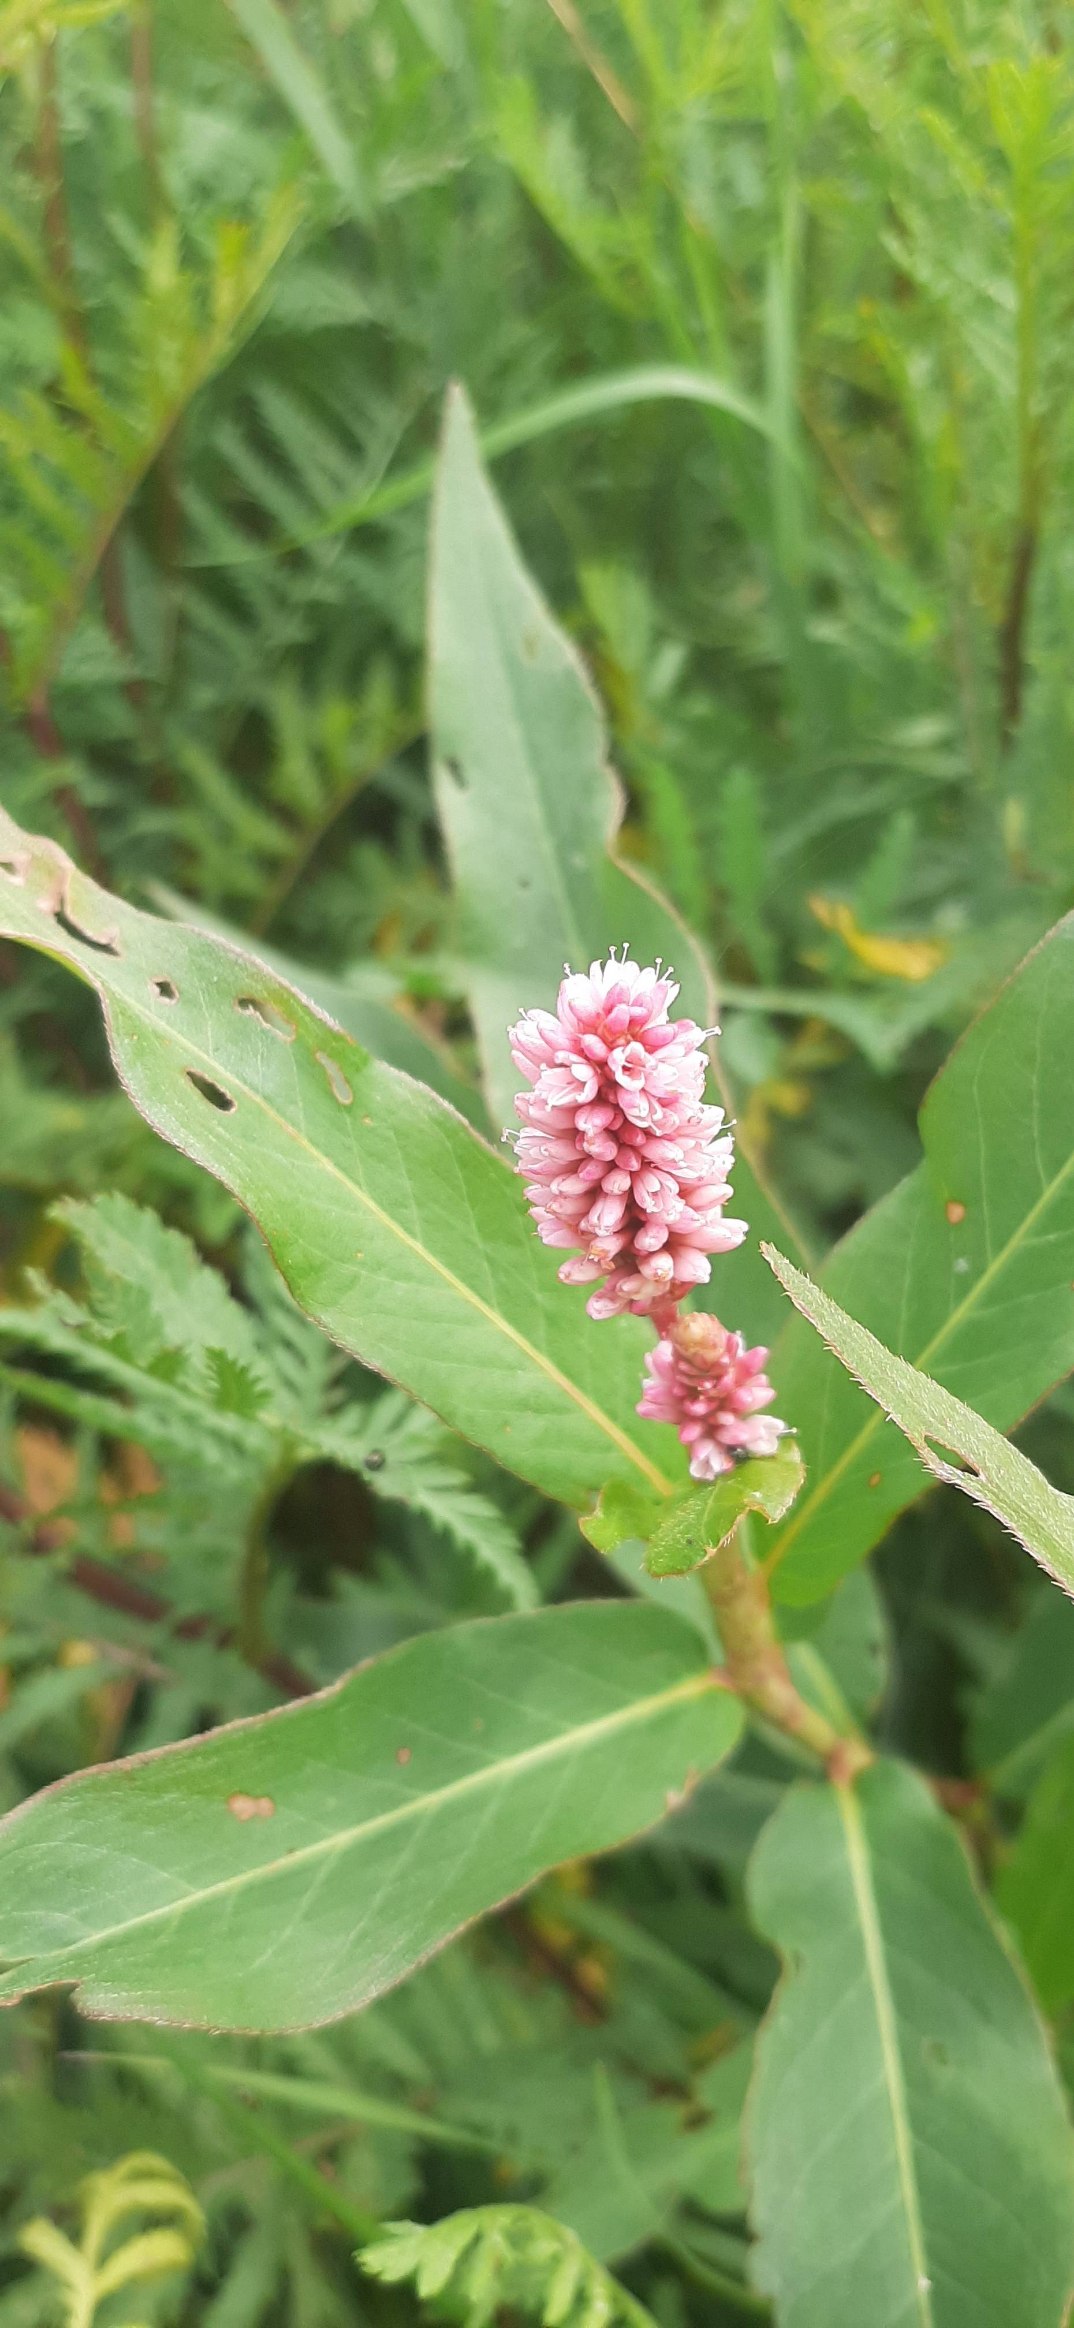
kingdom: Plantae
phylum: Tracheophyta
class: Magnoliopsida
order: Caryophyllales
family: Polygonaceae
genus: Persicaria
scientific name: Persicaria amphibia
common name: Vand-pileurt
